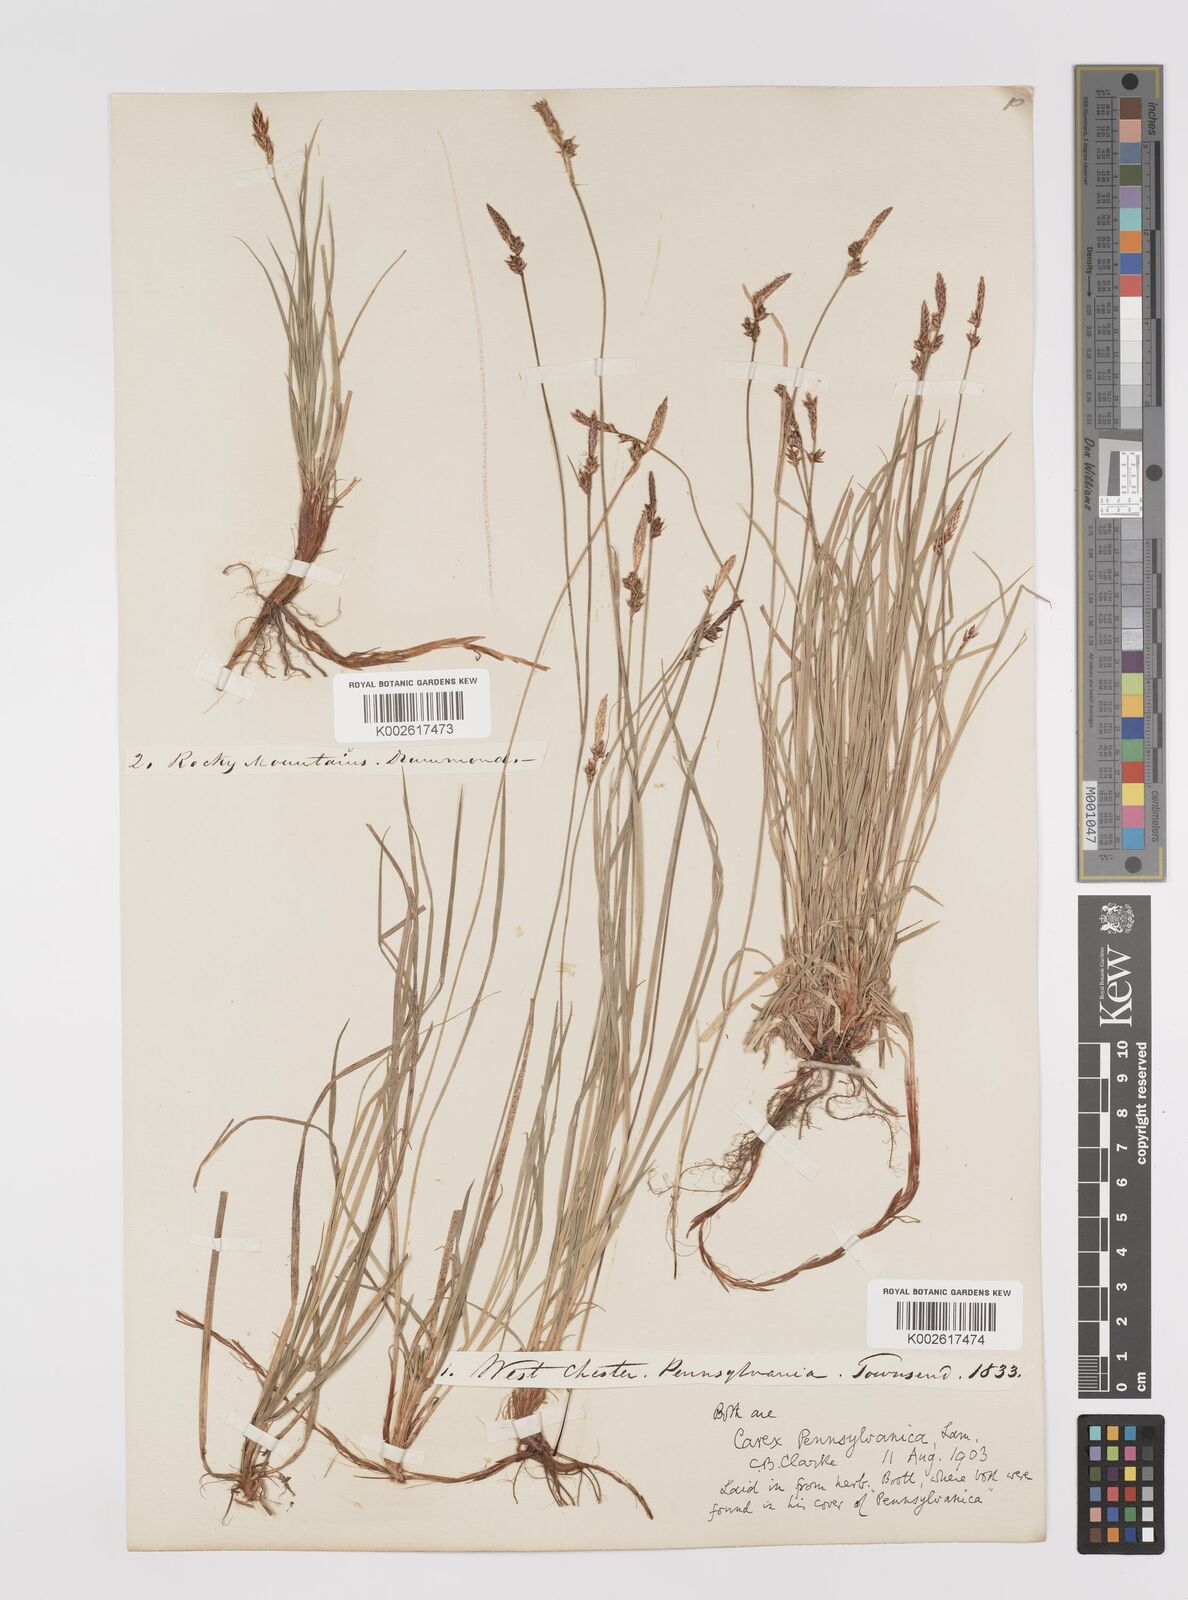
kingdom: Plantae
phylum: Tracheophyta
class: Liliopsida
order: Poales
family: Cyperaceae
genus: Carex
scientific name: Carex pensylvanica
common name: Common oak sedge
